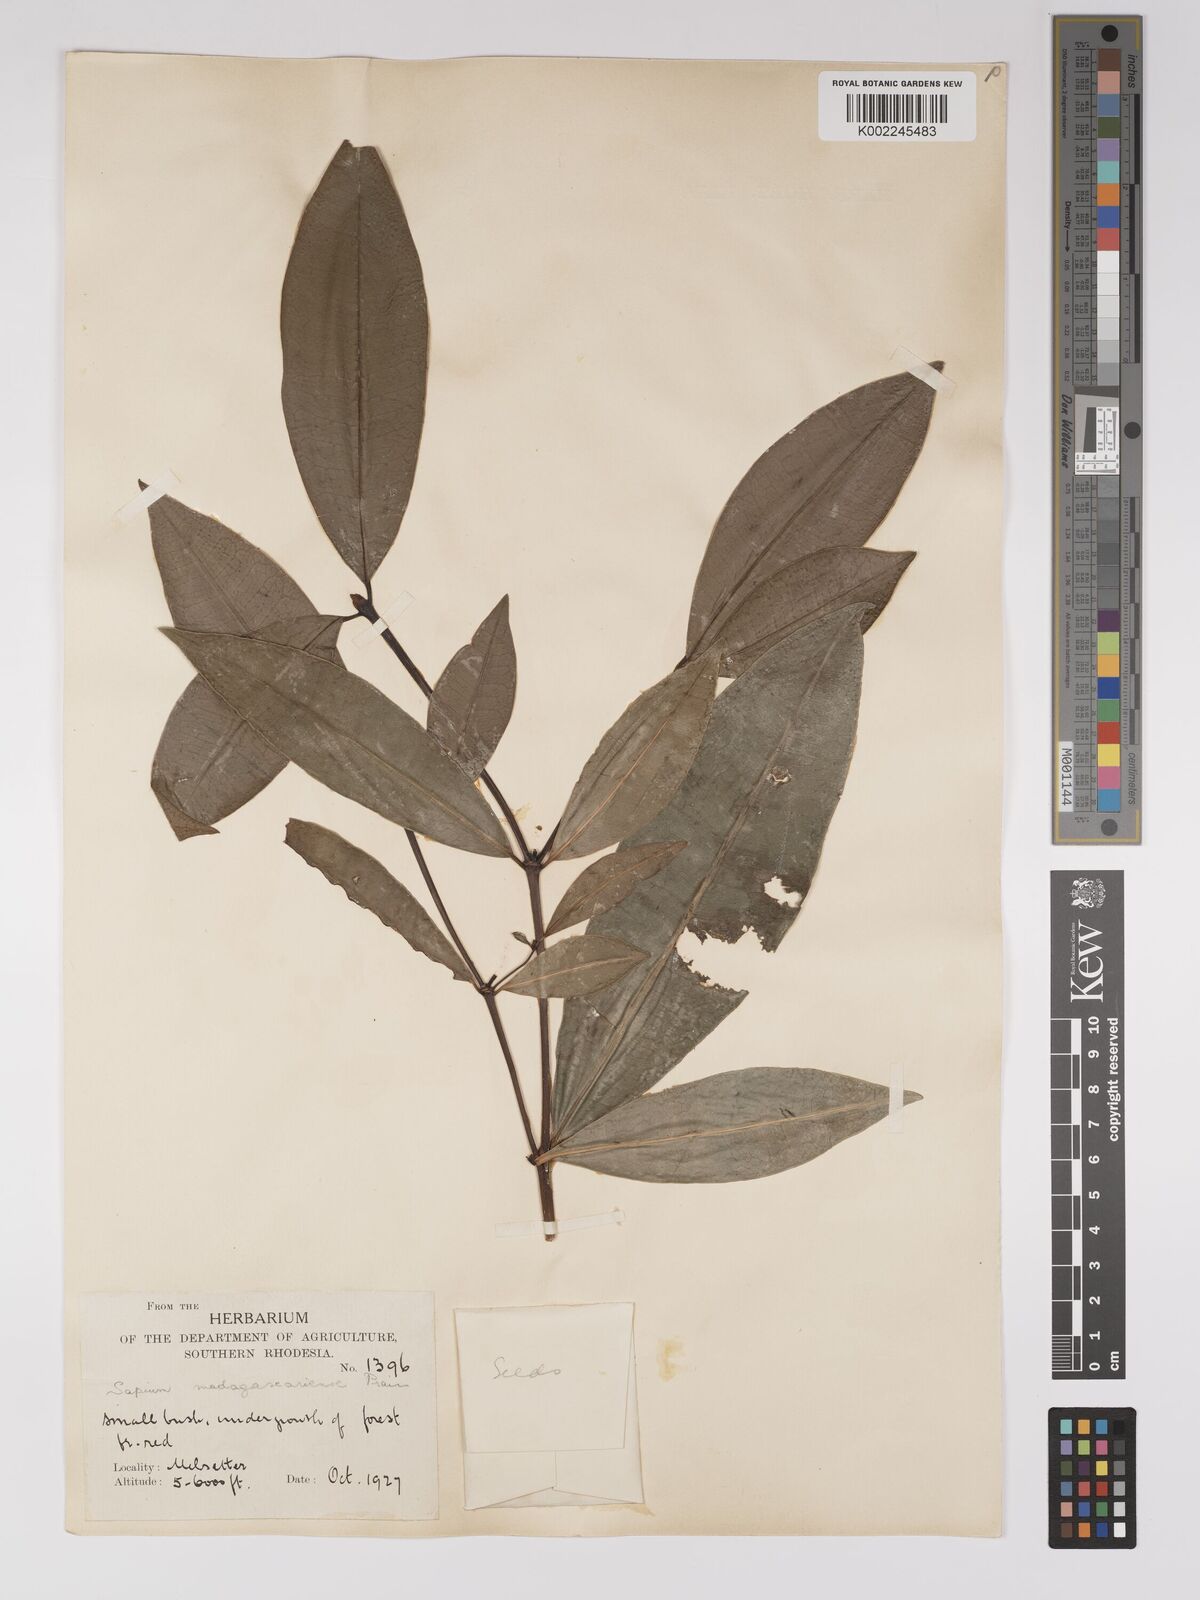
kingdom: Plantae
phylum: Tracheophyta
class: Magnoliopsida
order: Malpighiales
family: Euphorbiaceae
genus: Excoecaria
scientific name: Excoecaria madagascariensis
